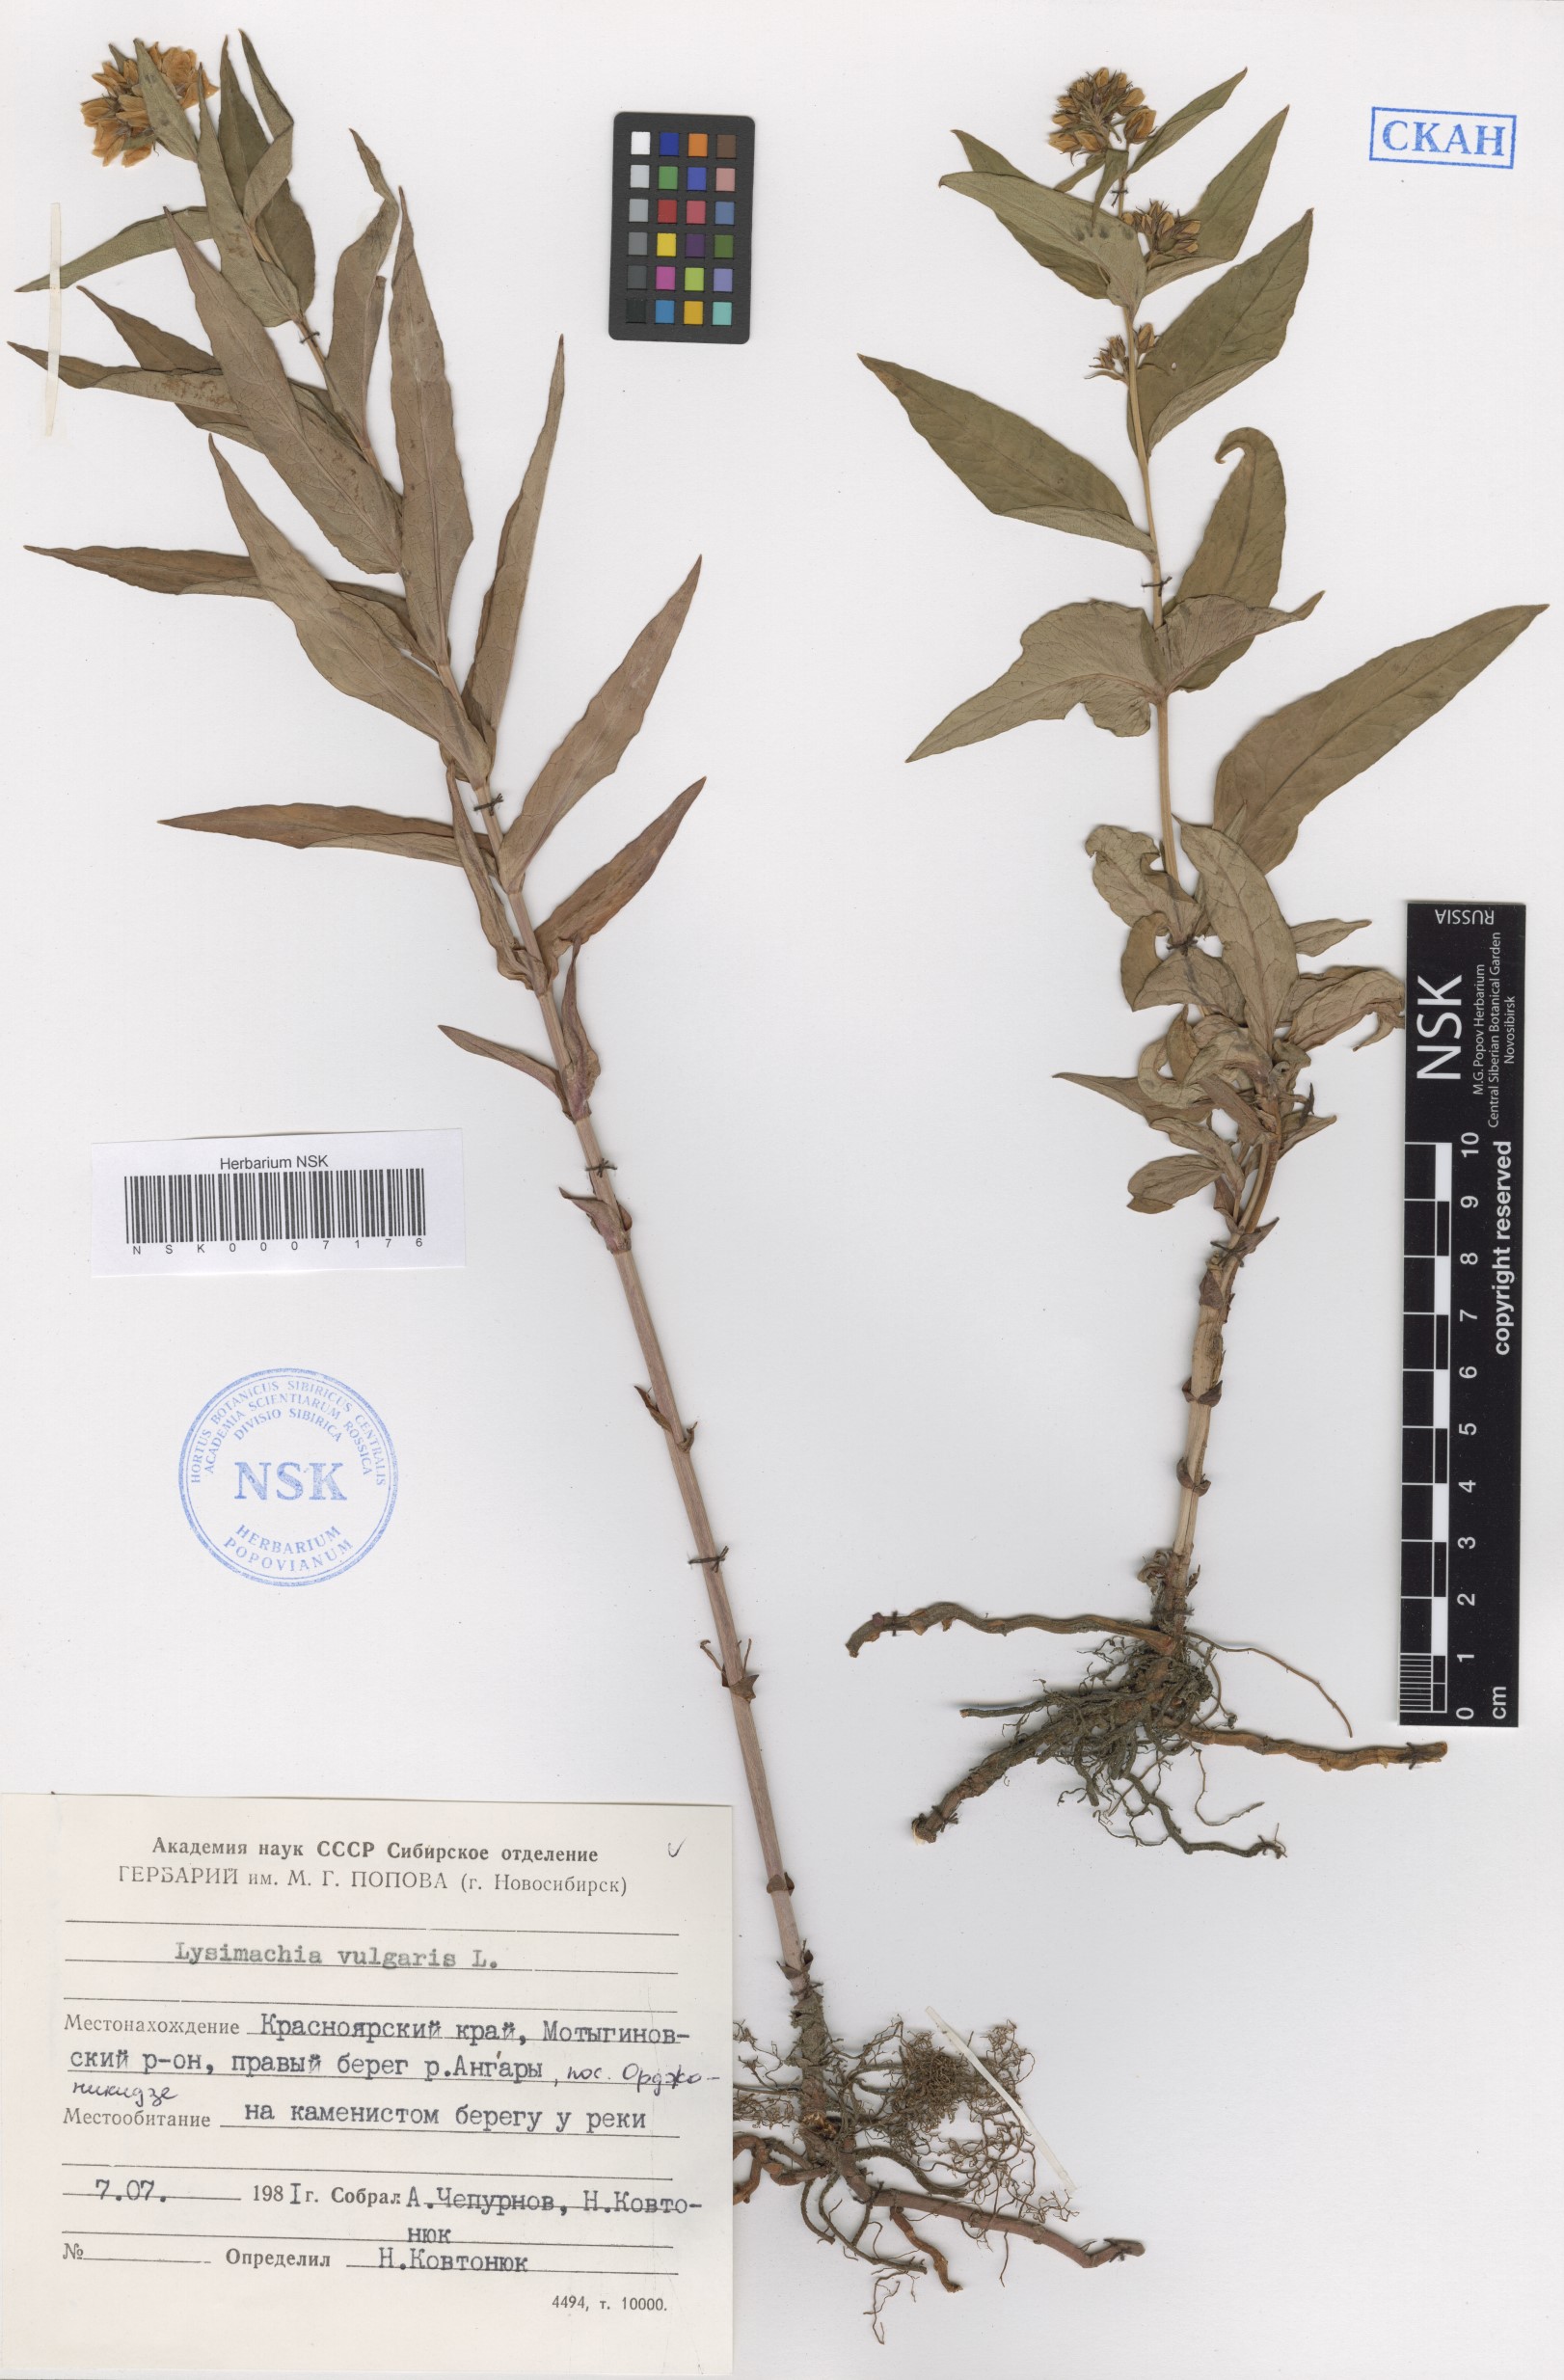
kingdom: Plantae
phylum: Tracheophyta
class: Magnoliopsida
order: Ericales
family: Primulaceae
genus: Lysimachia
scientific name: Lysimachia vulgaris
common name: Yellow loosestrife
